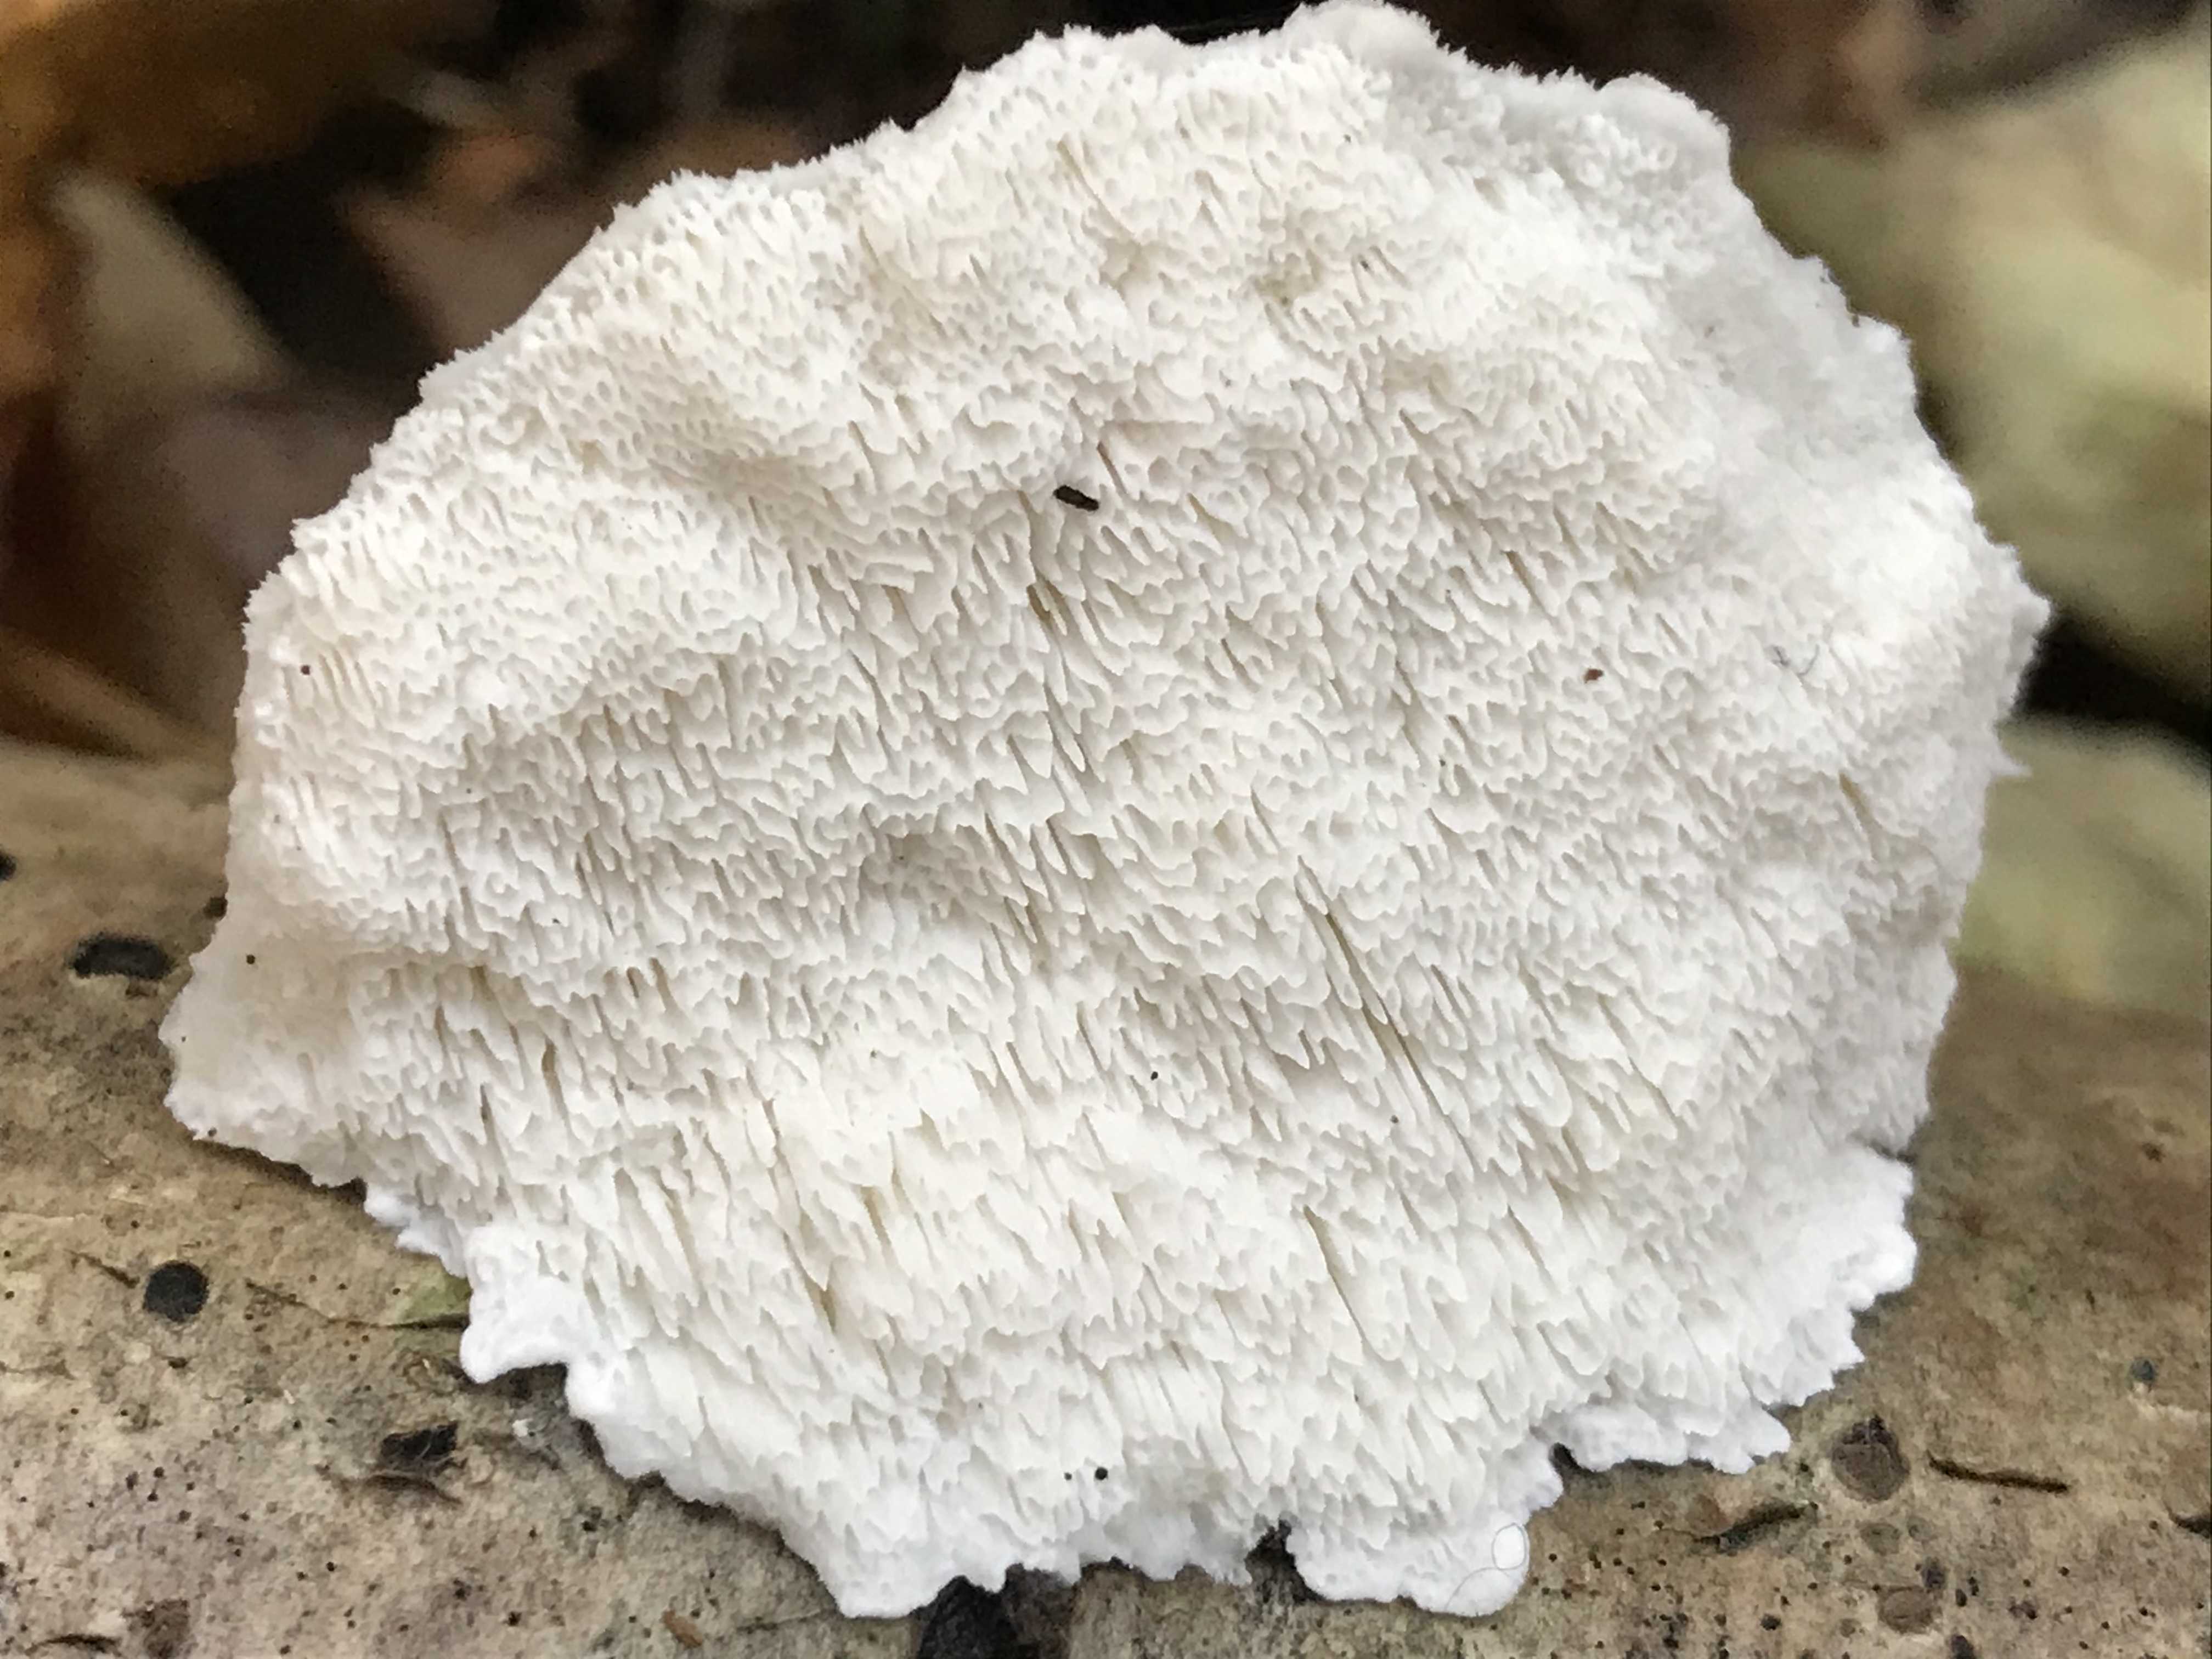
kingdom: Fungi
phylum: Basidiomycota
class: Agaricomycetes
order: Polyporales
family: Fomitopsidaceae
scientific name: Fomitopsidaceae
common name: hovporesvampfamilien
